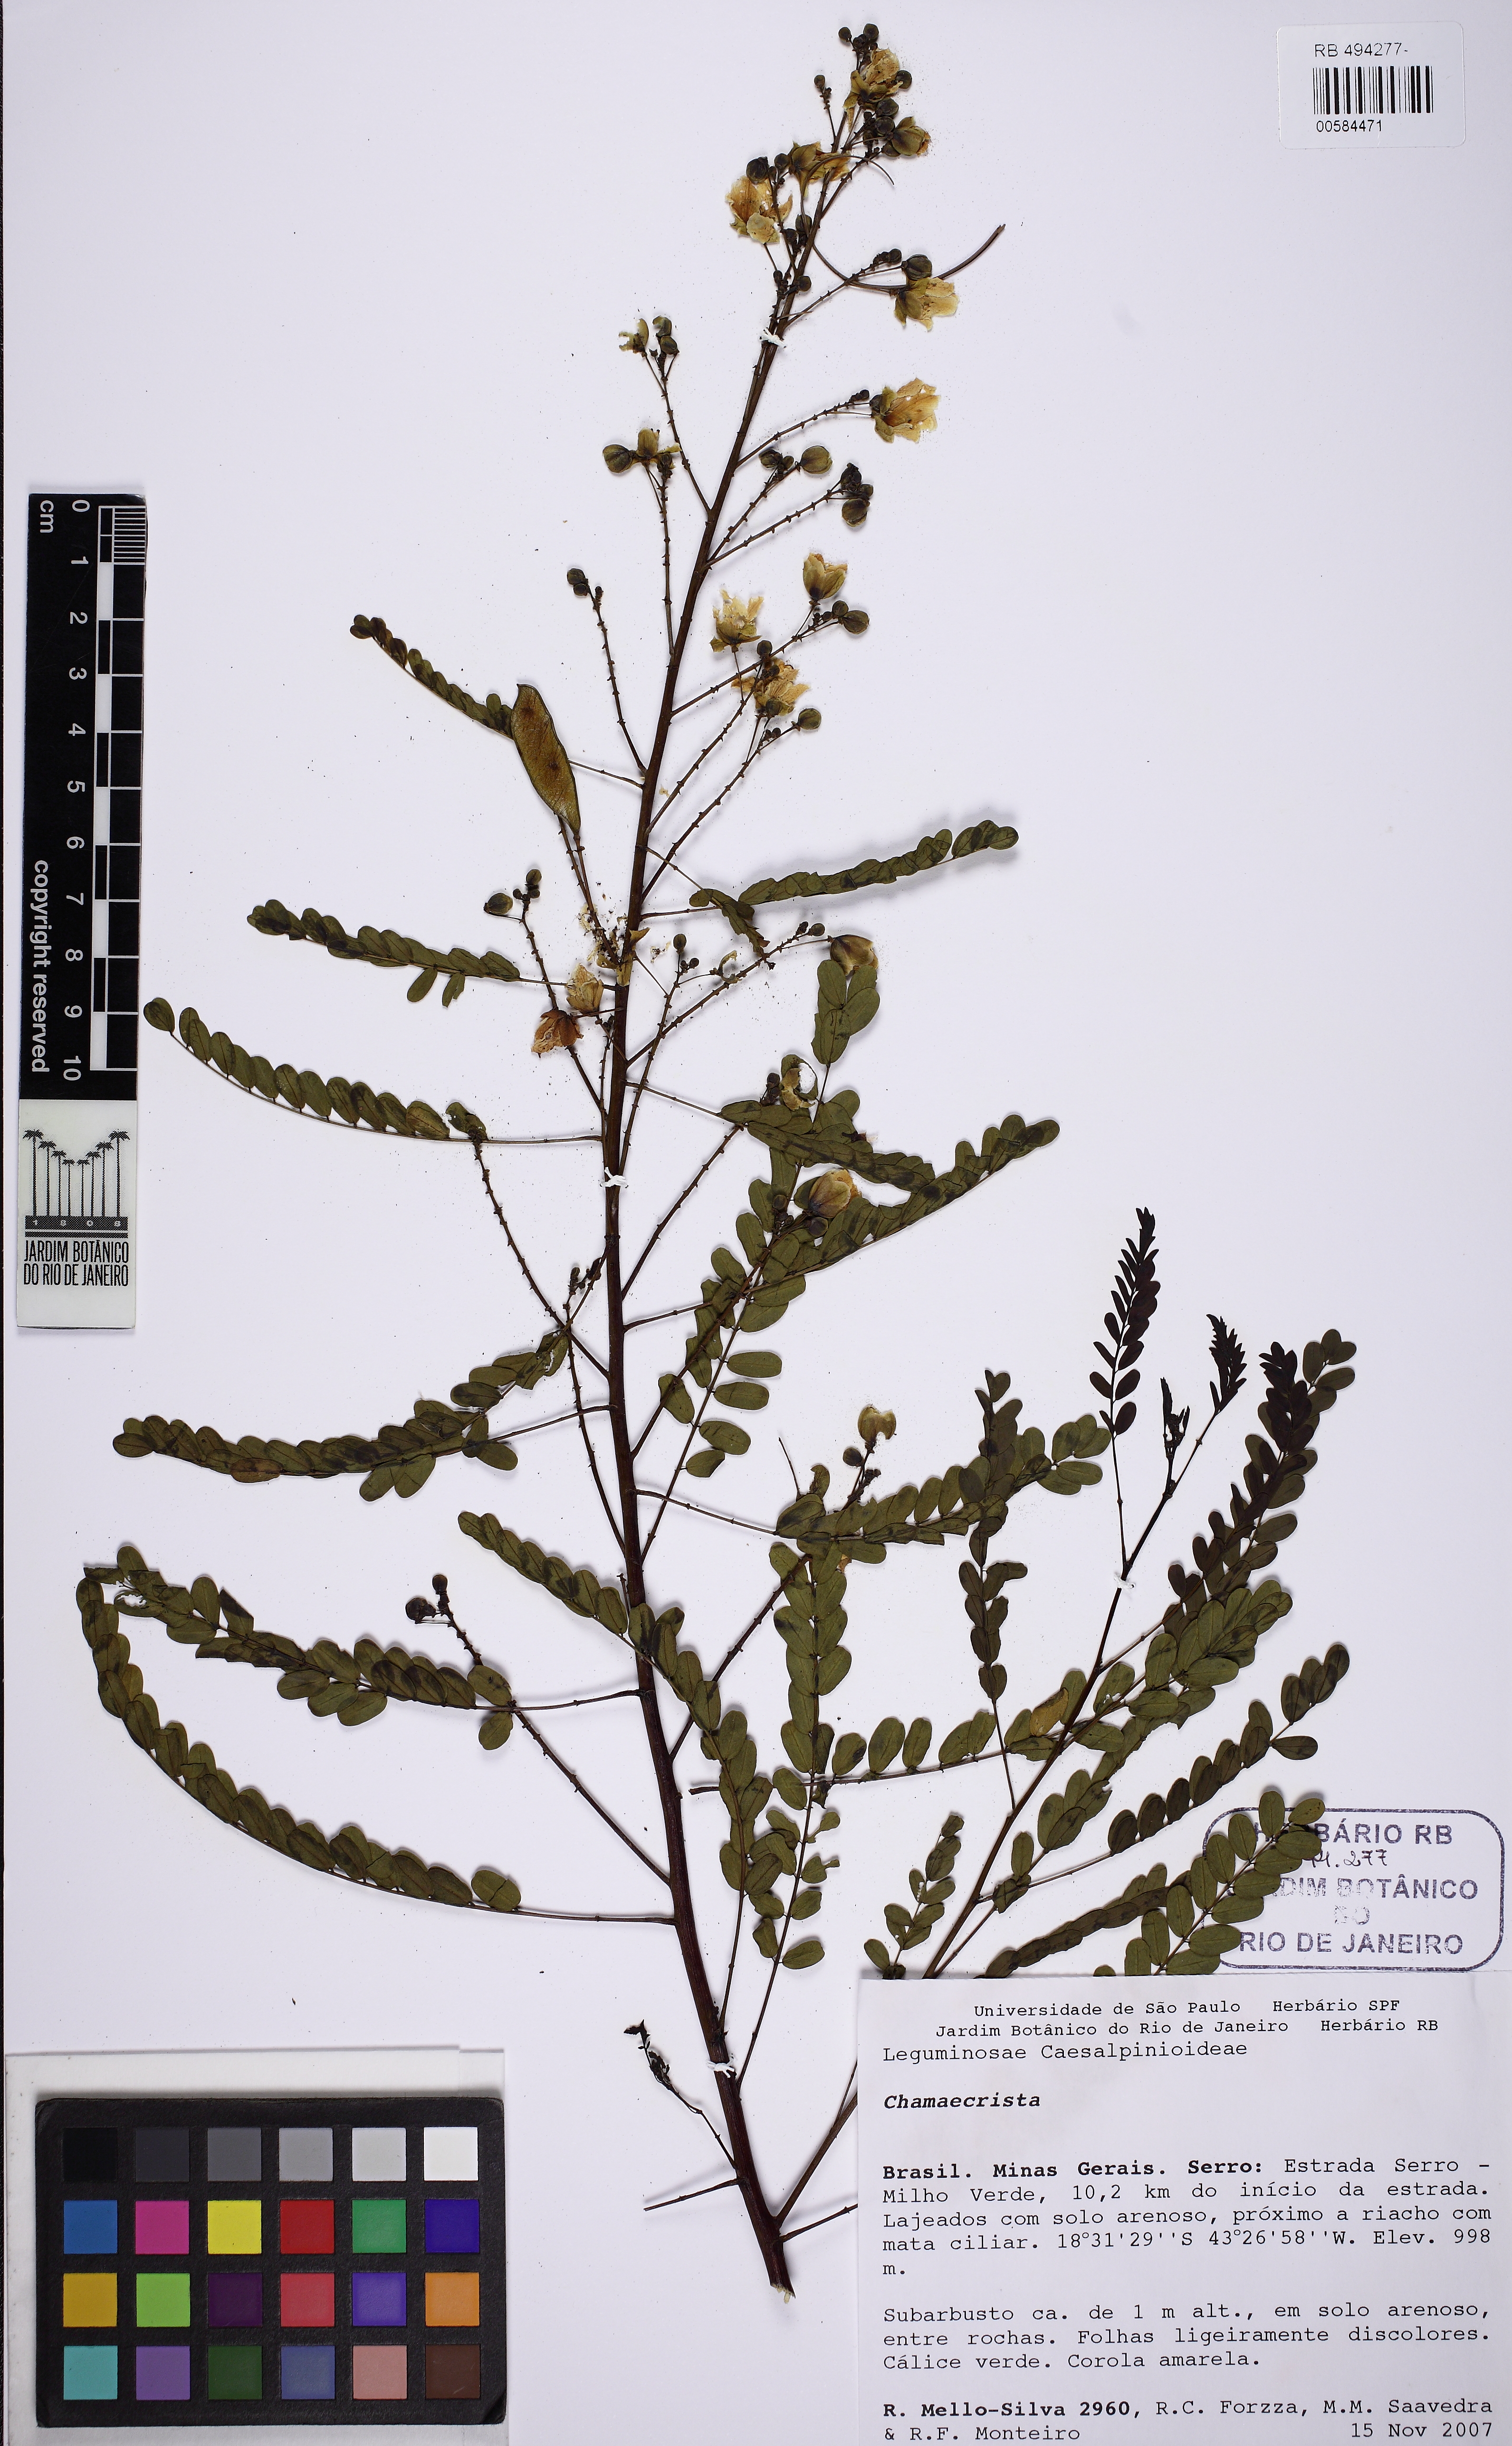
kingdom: Plantae
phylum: Tracheophyta
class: Magnoliopsida
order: Fabales
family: Fabaceae
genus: Chamaecrista
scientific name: Chamaecrista debilis
